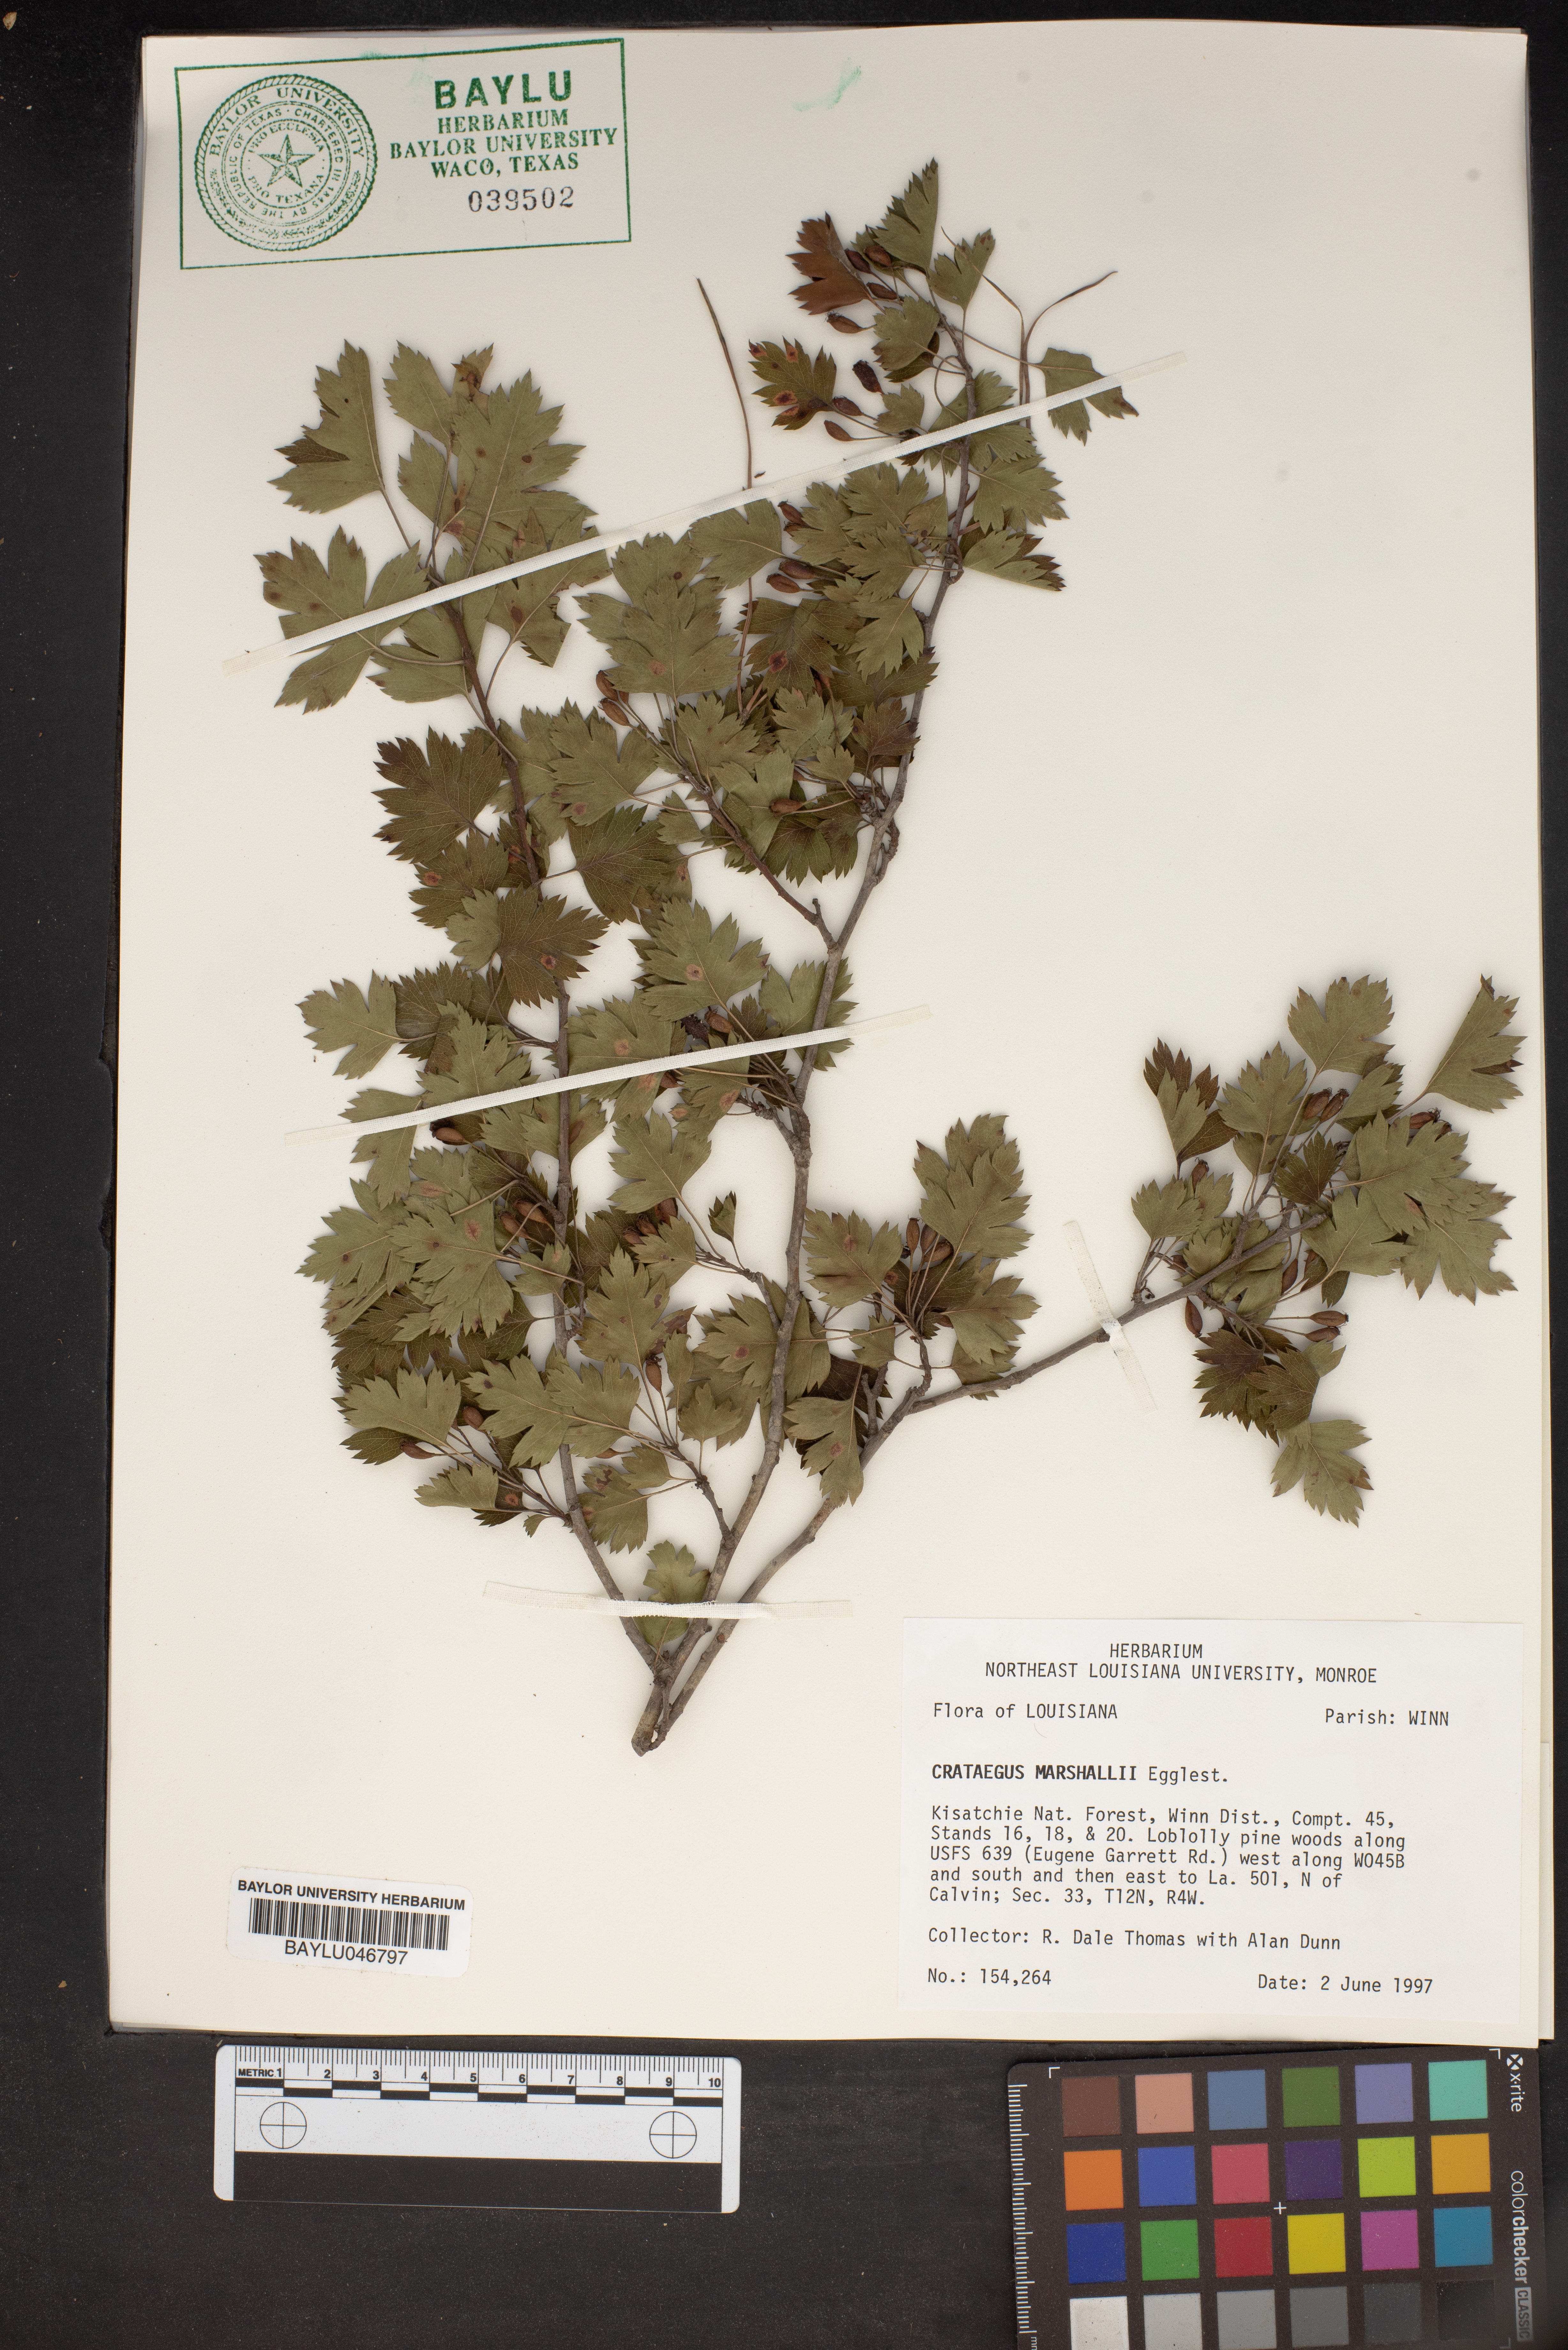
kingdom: Plantae
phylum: Tracheophyta
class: Magnoliopsida
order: Rosales
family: Rosaceae
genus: Crataegus
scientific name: Crataegus marshallii
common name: Parsley-hawthorn
